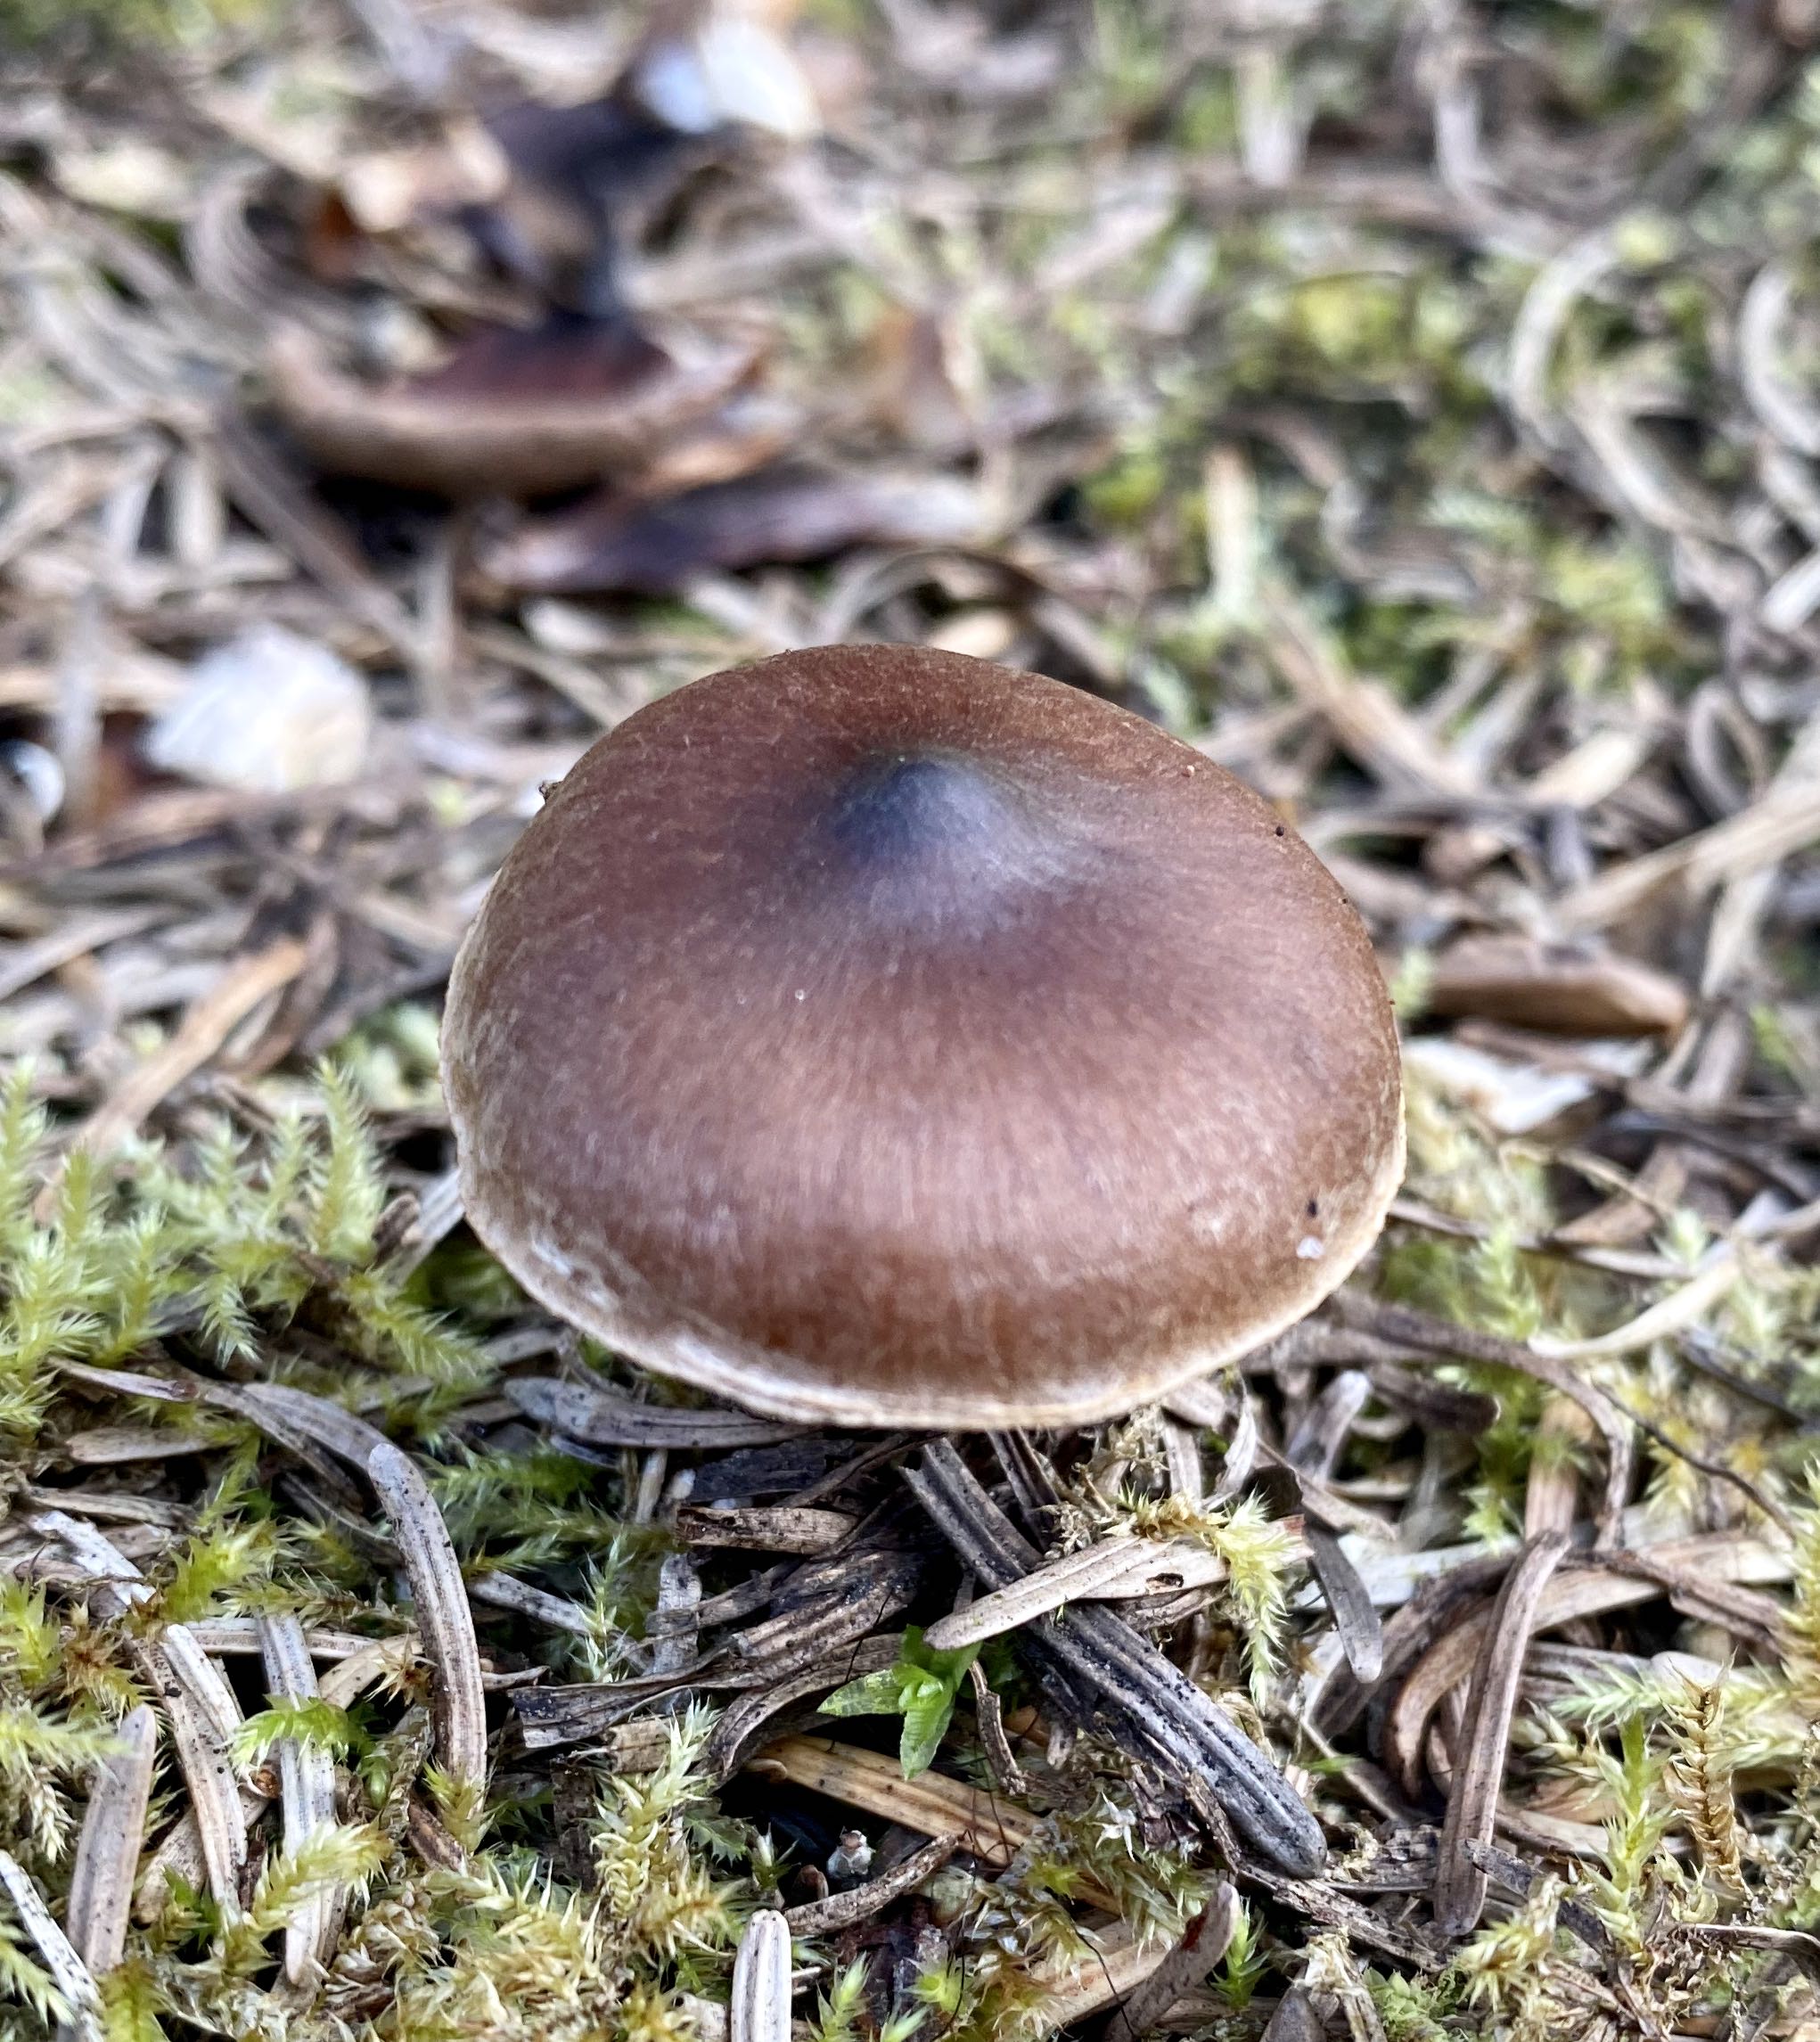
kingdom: Fungi
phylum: Basidiomycota
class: Agaricomycetes
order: Agaricales
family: Cortinariaceae
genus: Cortinarius
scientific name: Cortinarius
